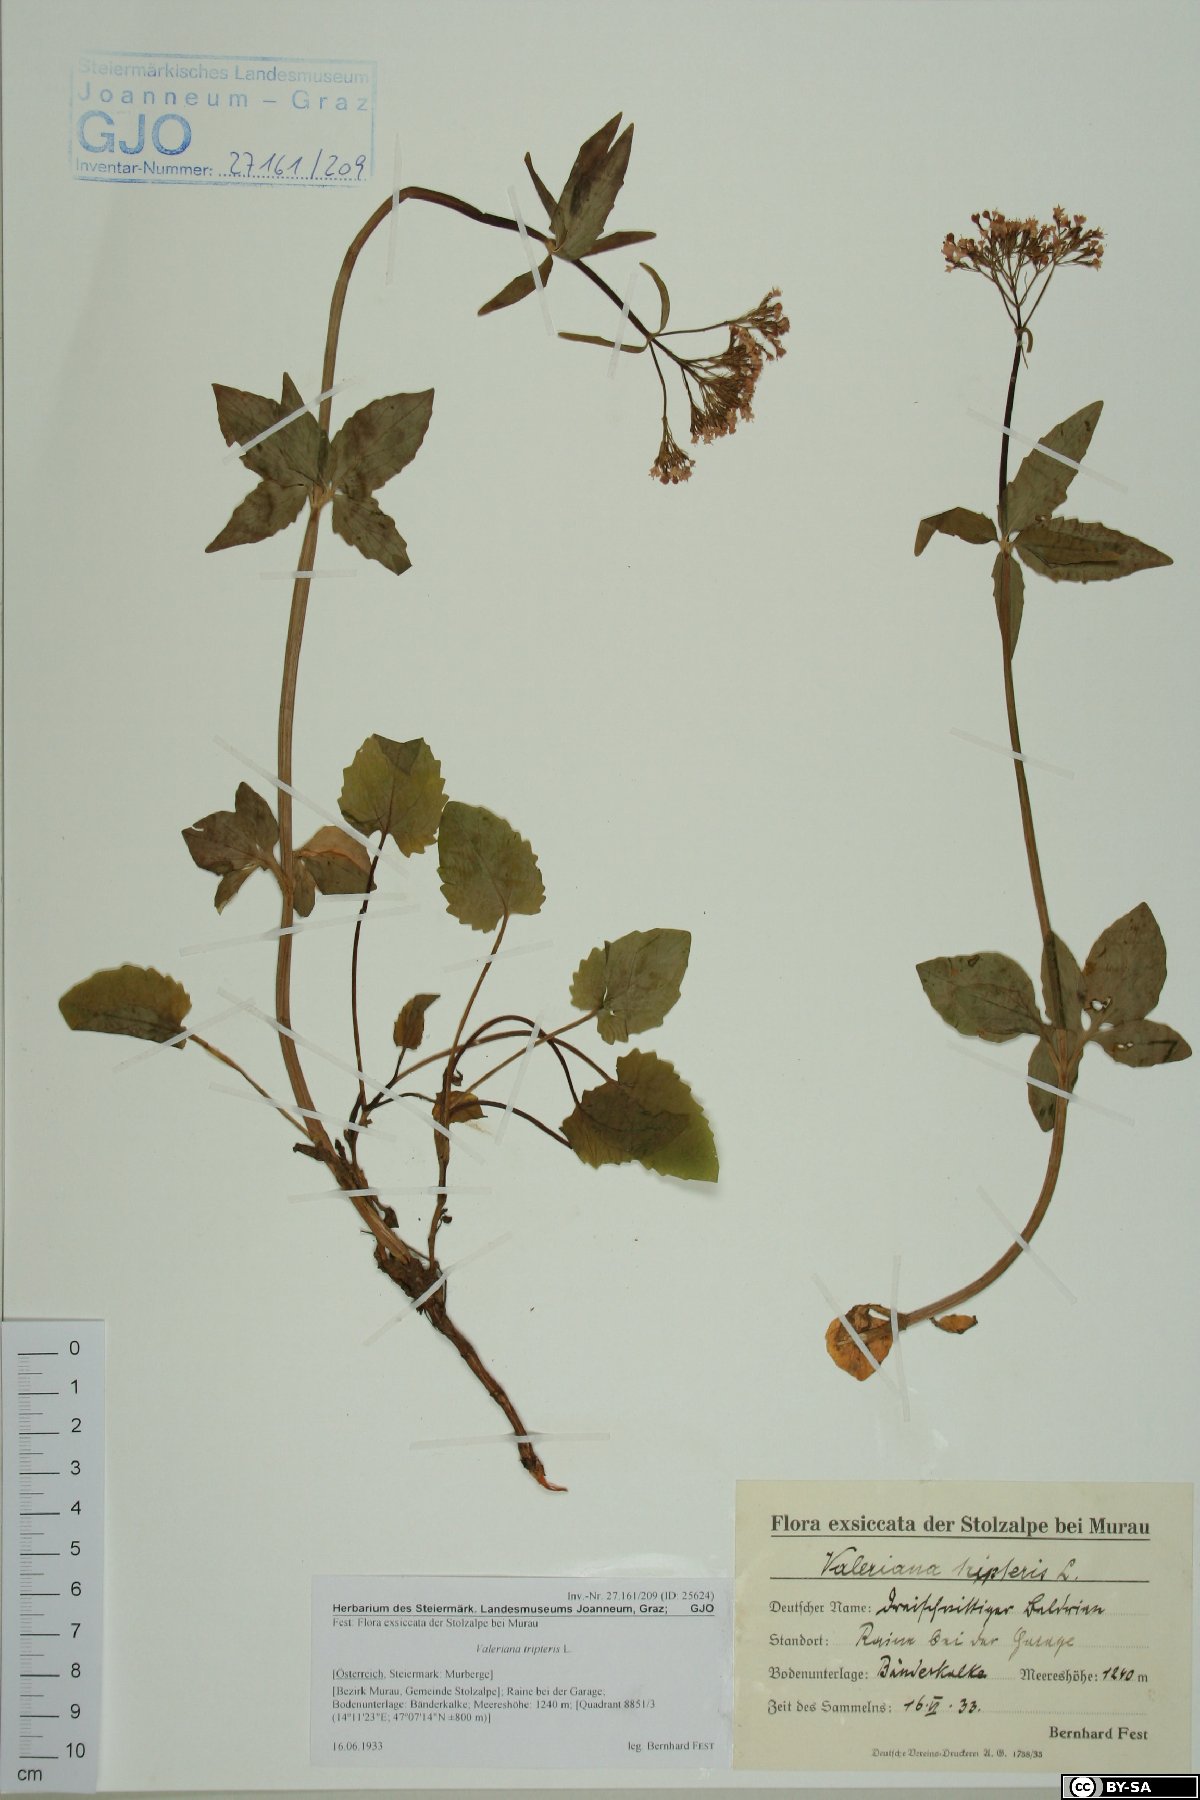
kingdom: Plantae
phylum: Tracheophyta
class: Magnoliopsida
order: Dipsacales
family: Caprifoliaceae
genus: Valeriana
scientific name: Valeriana tripteris
